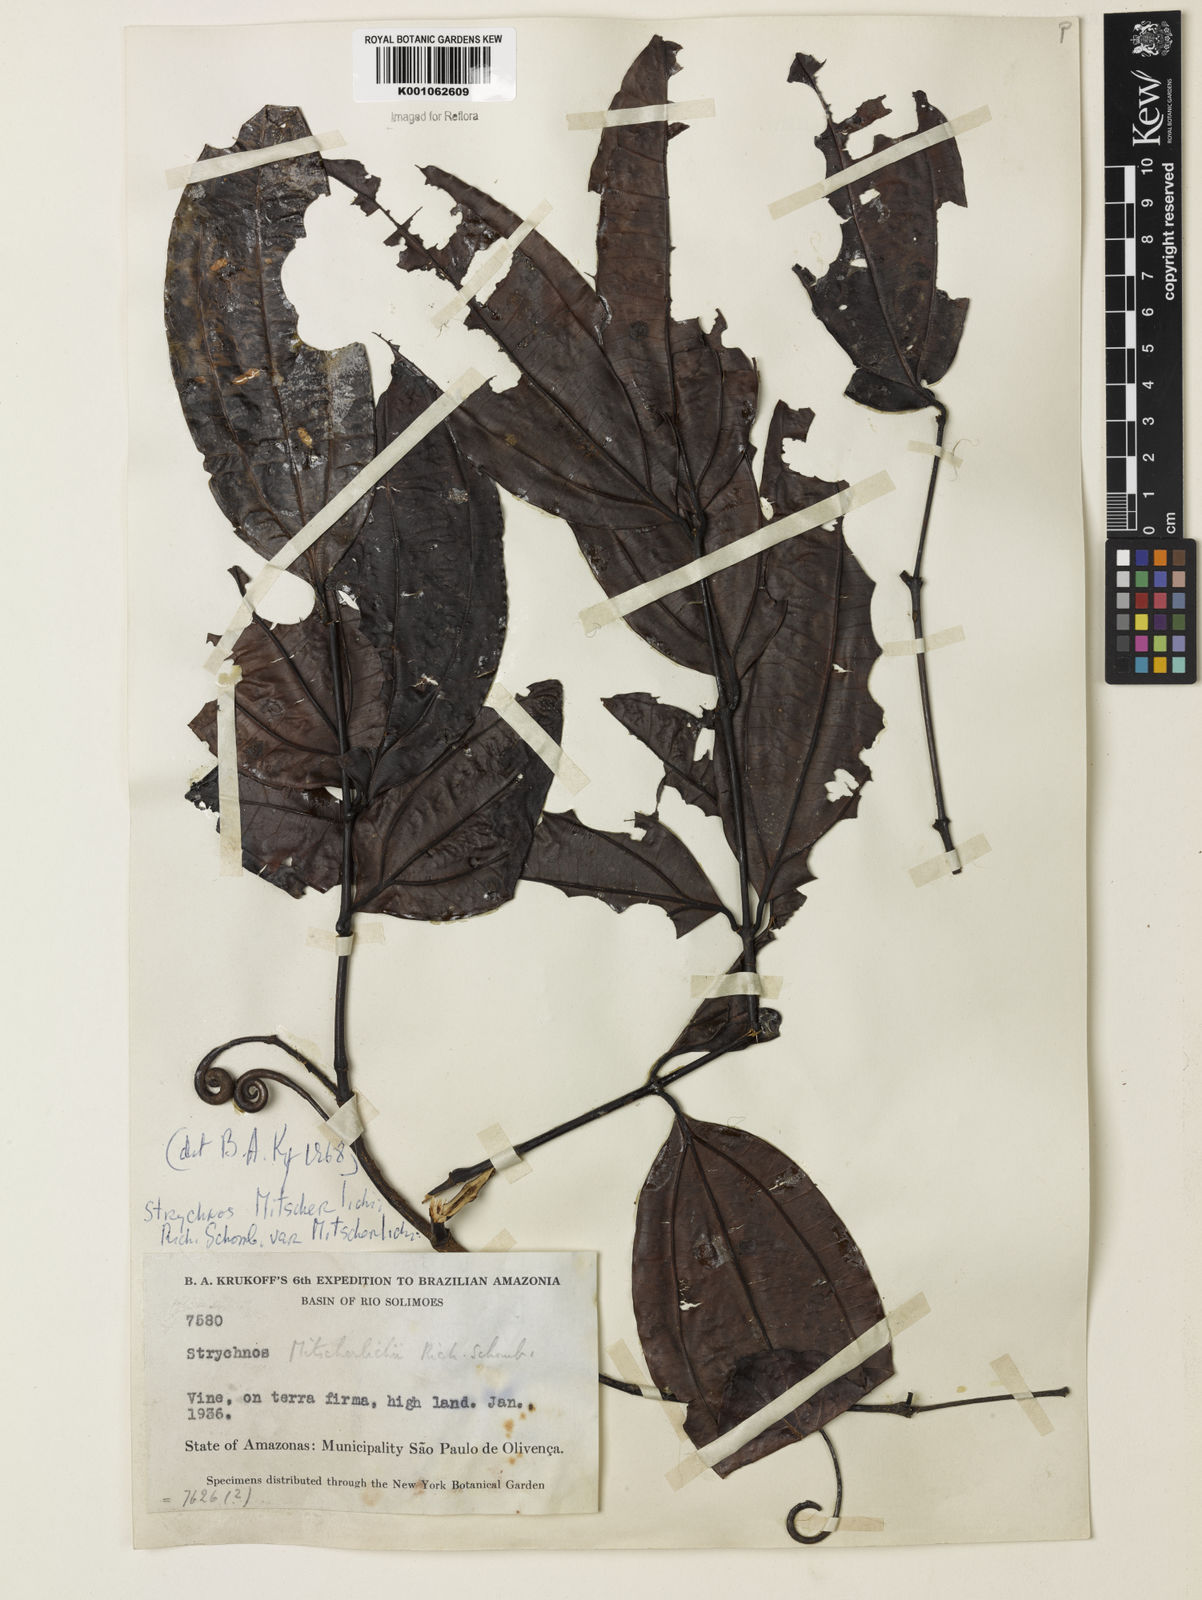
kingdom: Plantae
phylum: Tracheophyta
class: Magnoliopsida
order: Gentianales
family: Loganiaceae
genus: Strychnos
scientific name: Strychnos mitscherlichii
